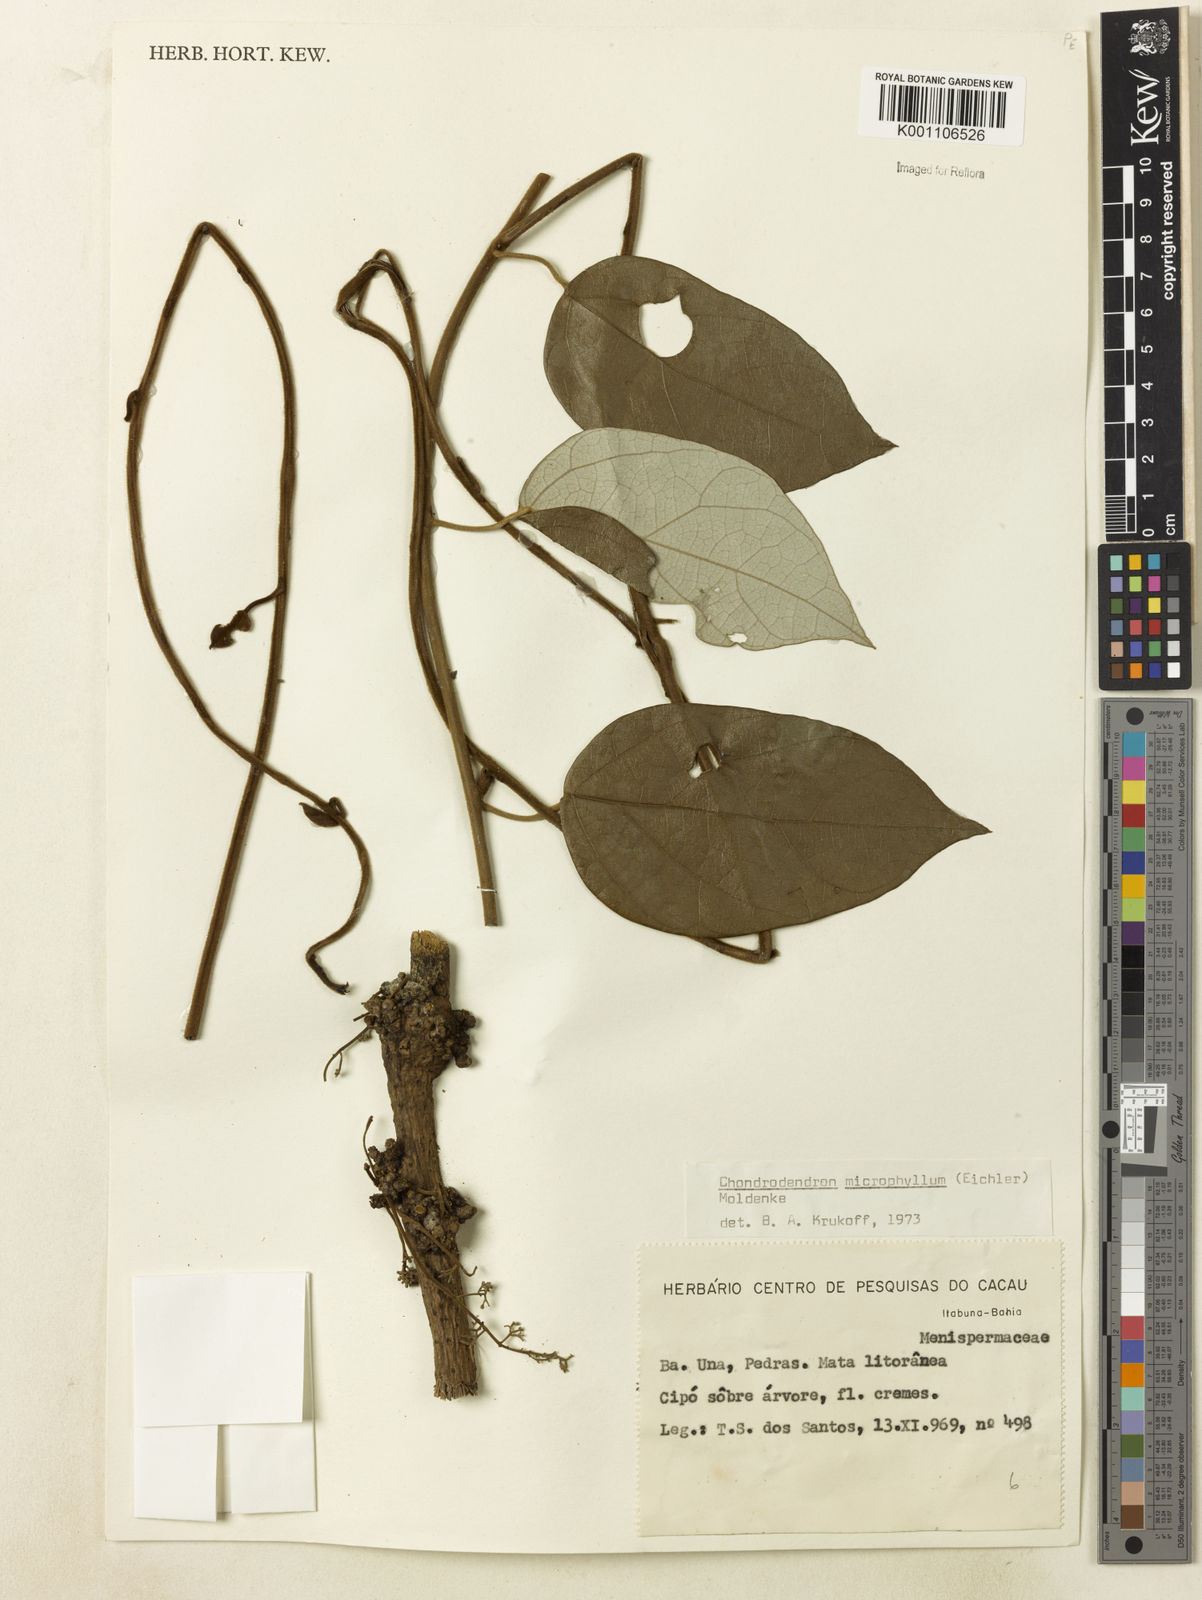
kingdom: Plantae
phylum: Tracheophyta
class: Magnoliopsida
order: Ranunculales
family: Menispermaceae
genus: Chondrodendron
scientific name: Chondrodendron microphyllum
